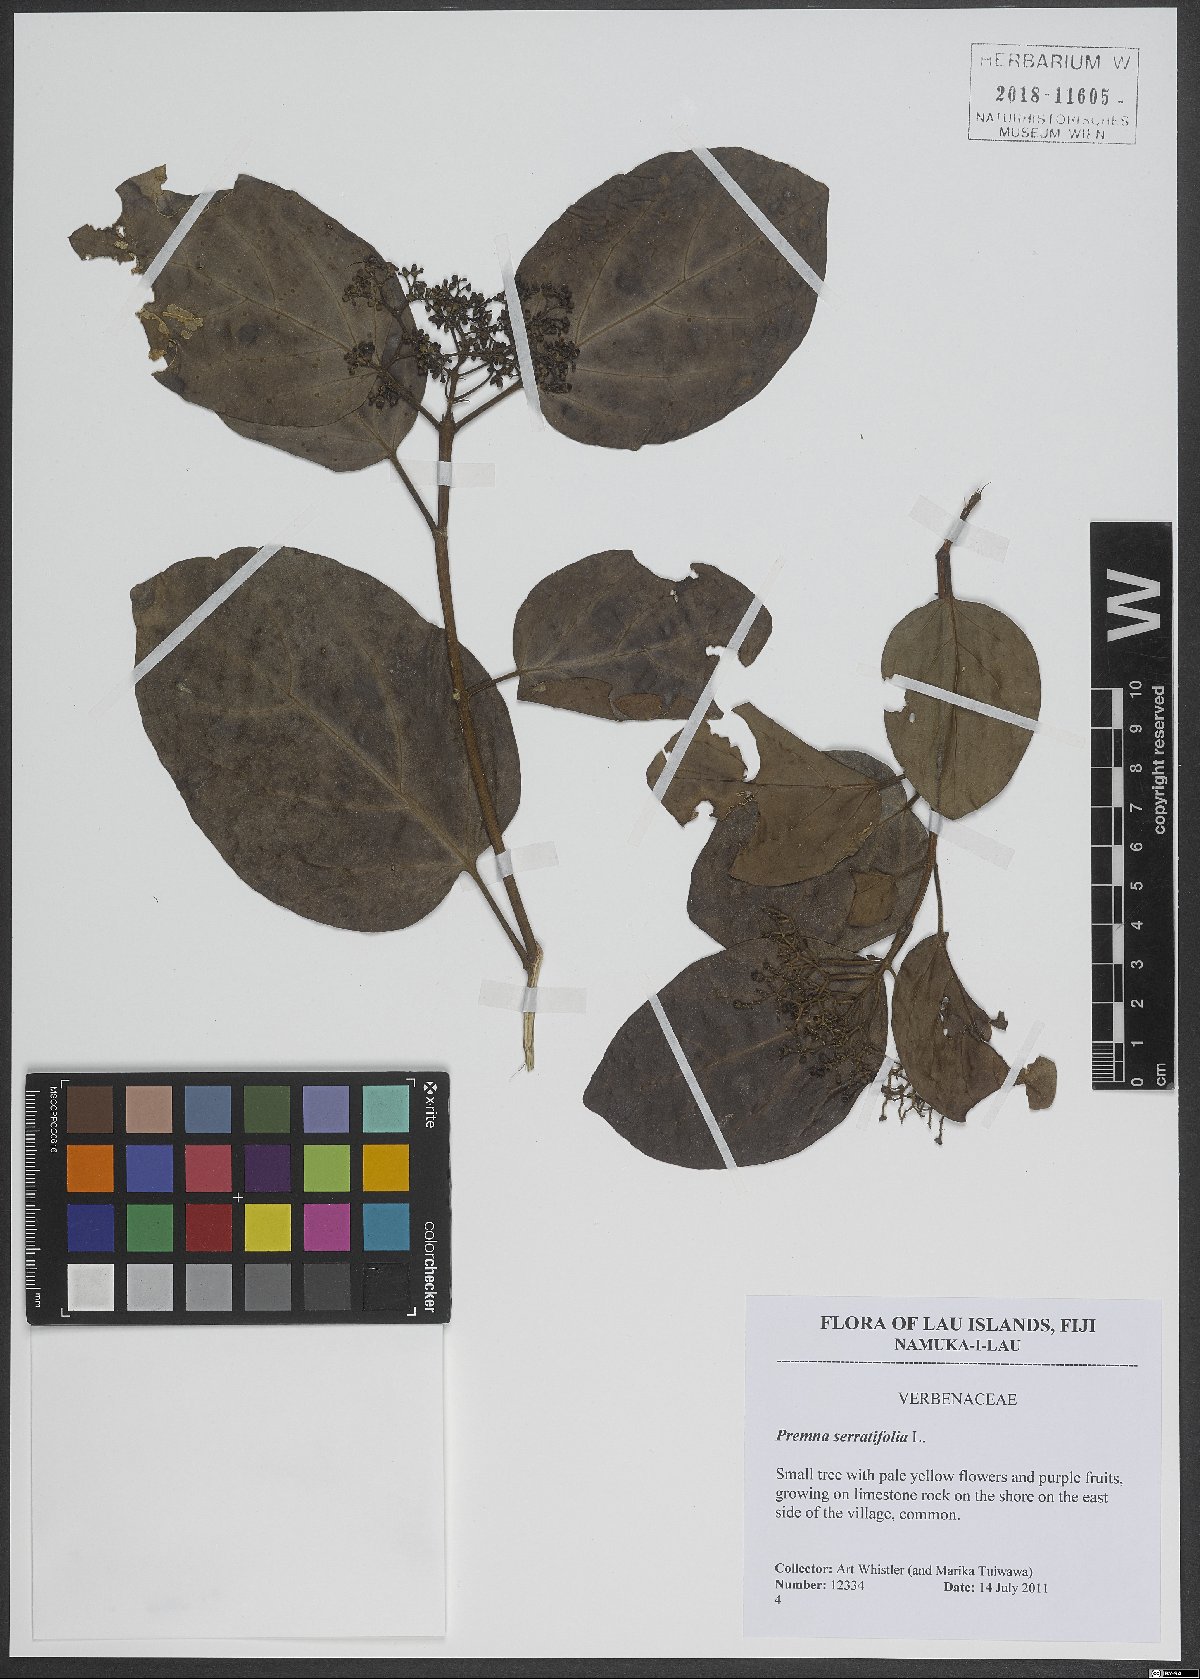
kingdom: Plantae
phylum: Tracheophyta
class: Magnoliopsida
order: Lamiales
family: Lamiaceae
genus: Premna
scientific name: Premna serratifolia
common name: Bastard guelder
